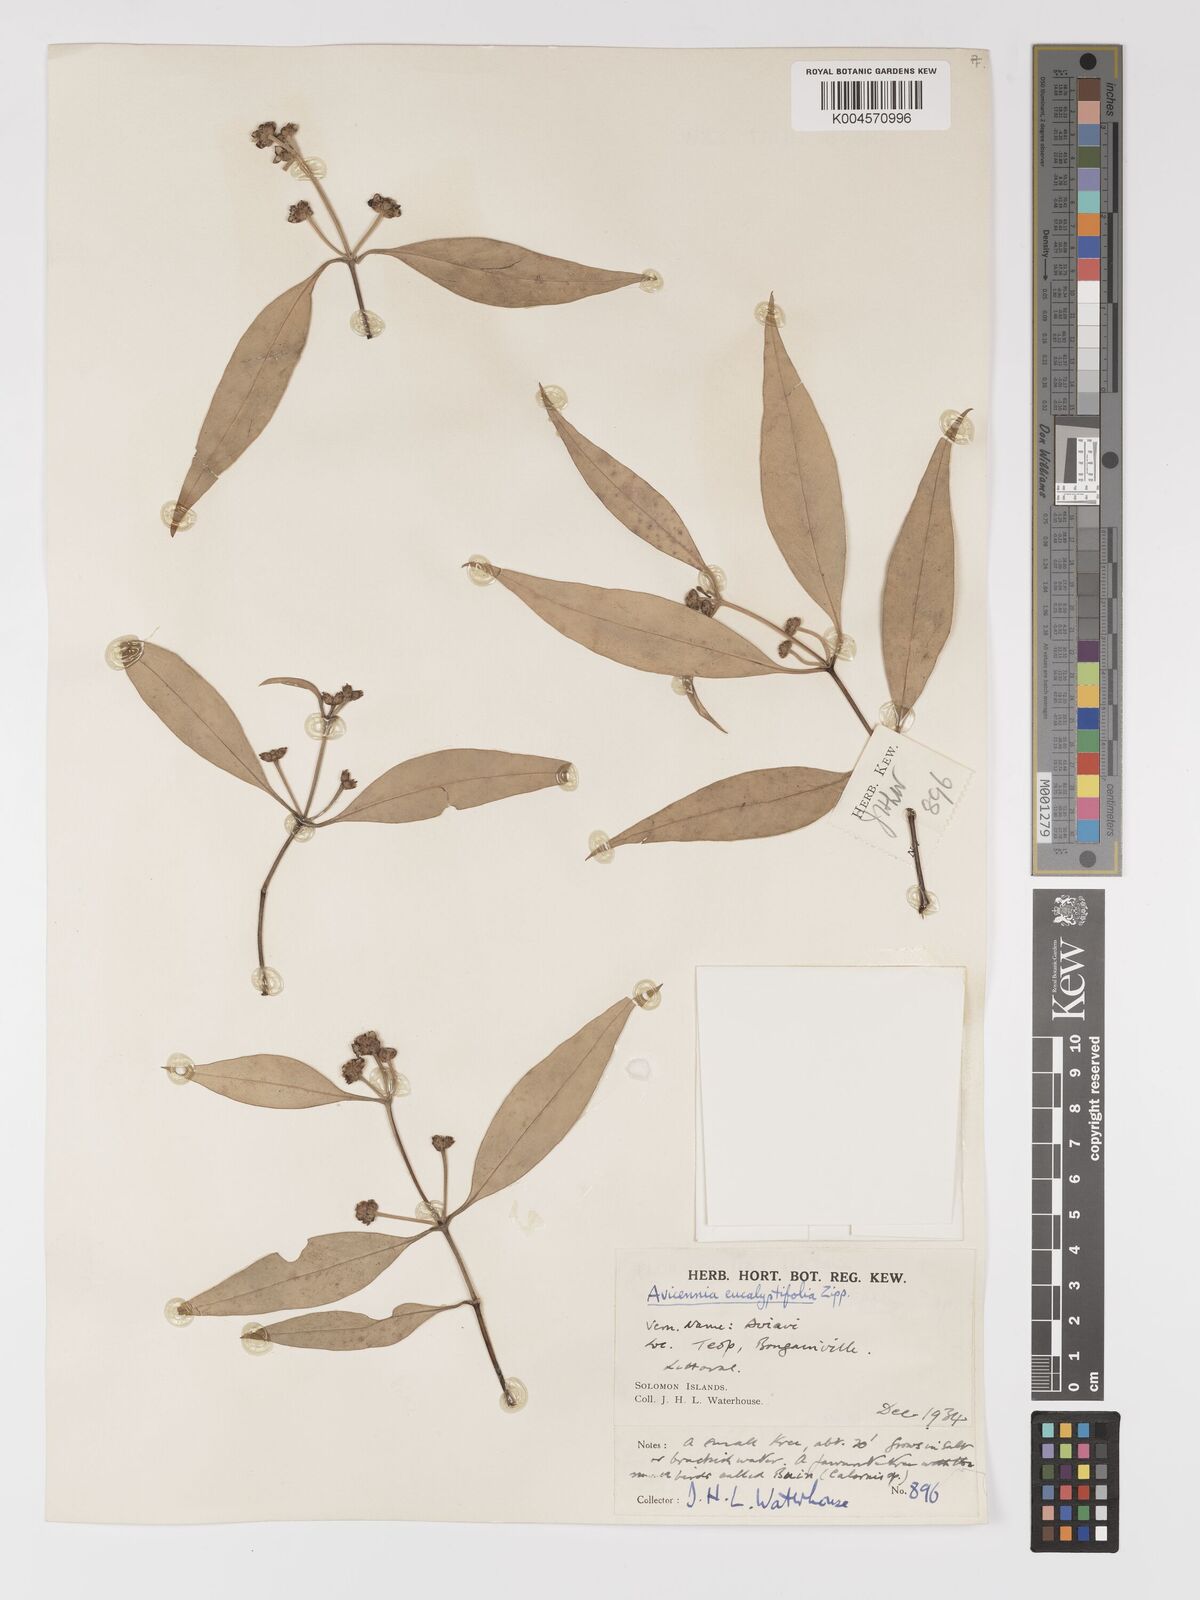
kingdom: Plantae
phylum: Tracheophyta
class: Magnoliopsida
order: Lamiales
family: Acanthaceae
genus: Avicennia
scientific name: Avicennia marina
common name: Gray mangrove
